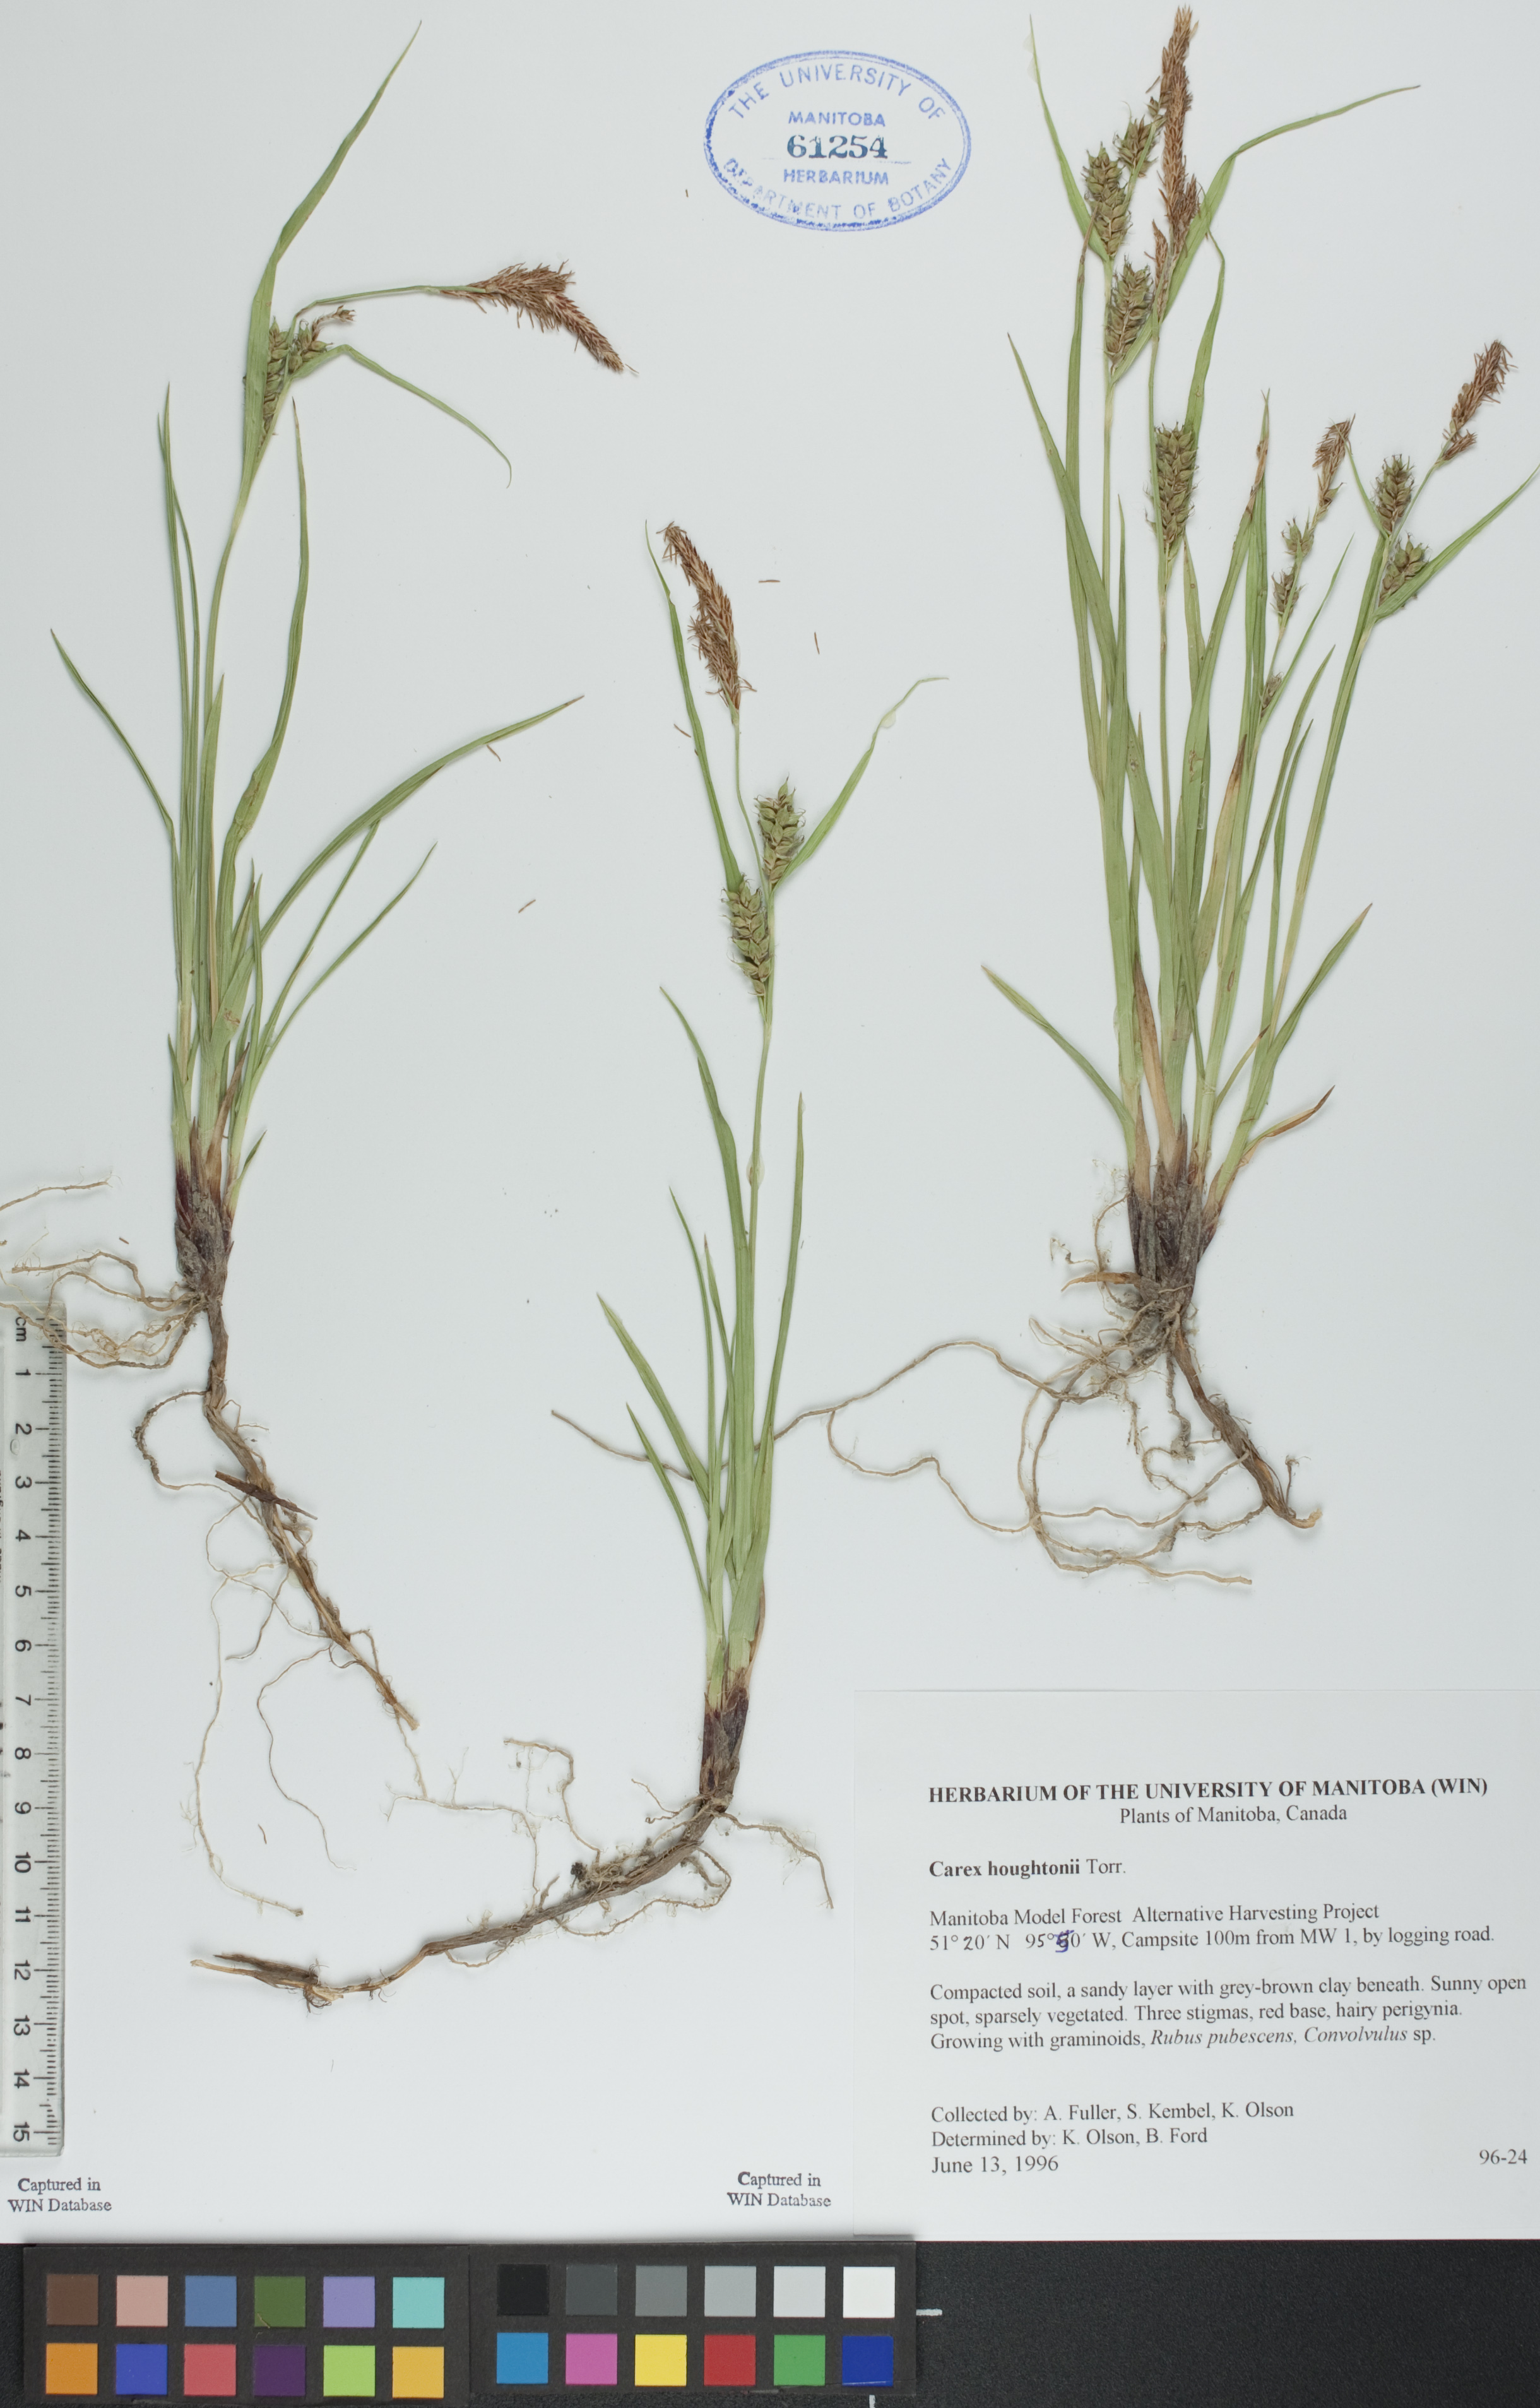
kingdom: Plantae
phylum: Tracheophyta
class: Liliopsida
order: Poales
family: Cyperaceae
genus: Carex
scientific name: Carex houghtoniana
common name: Houghton's sedge
